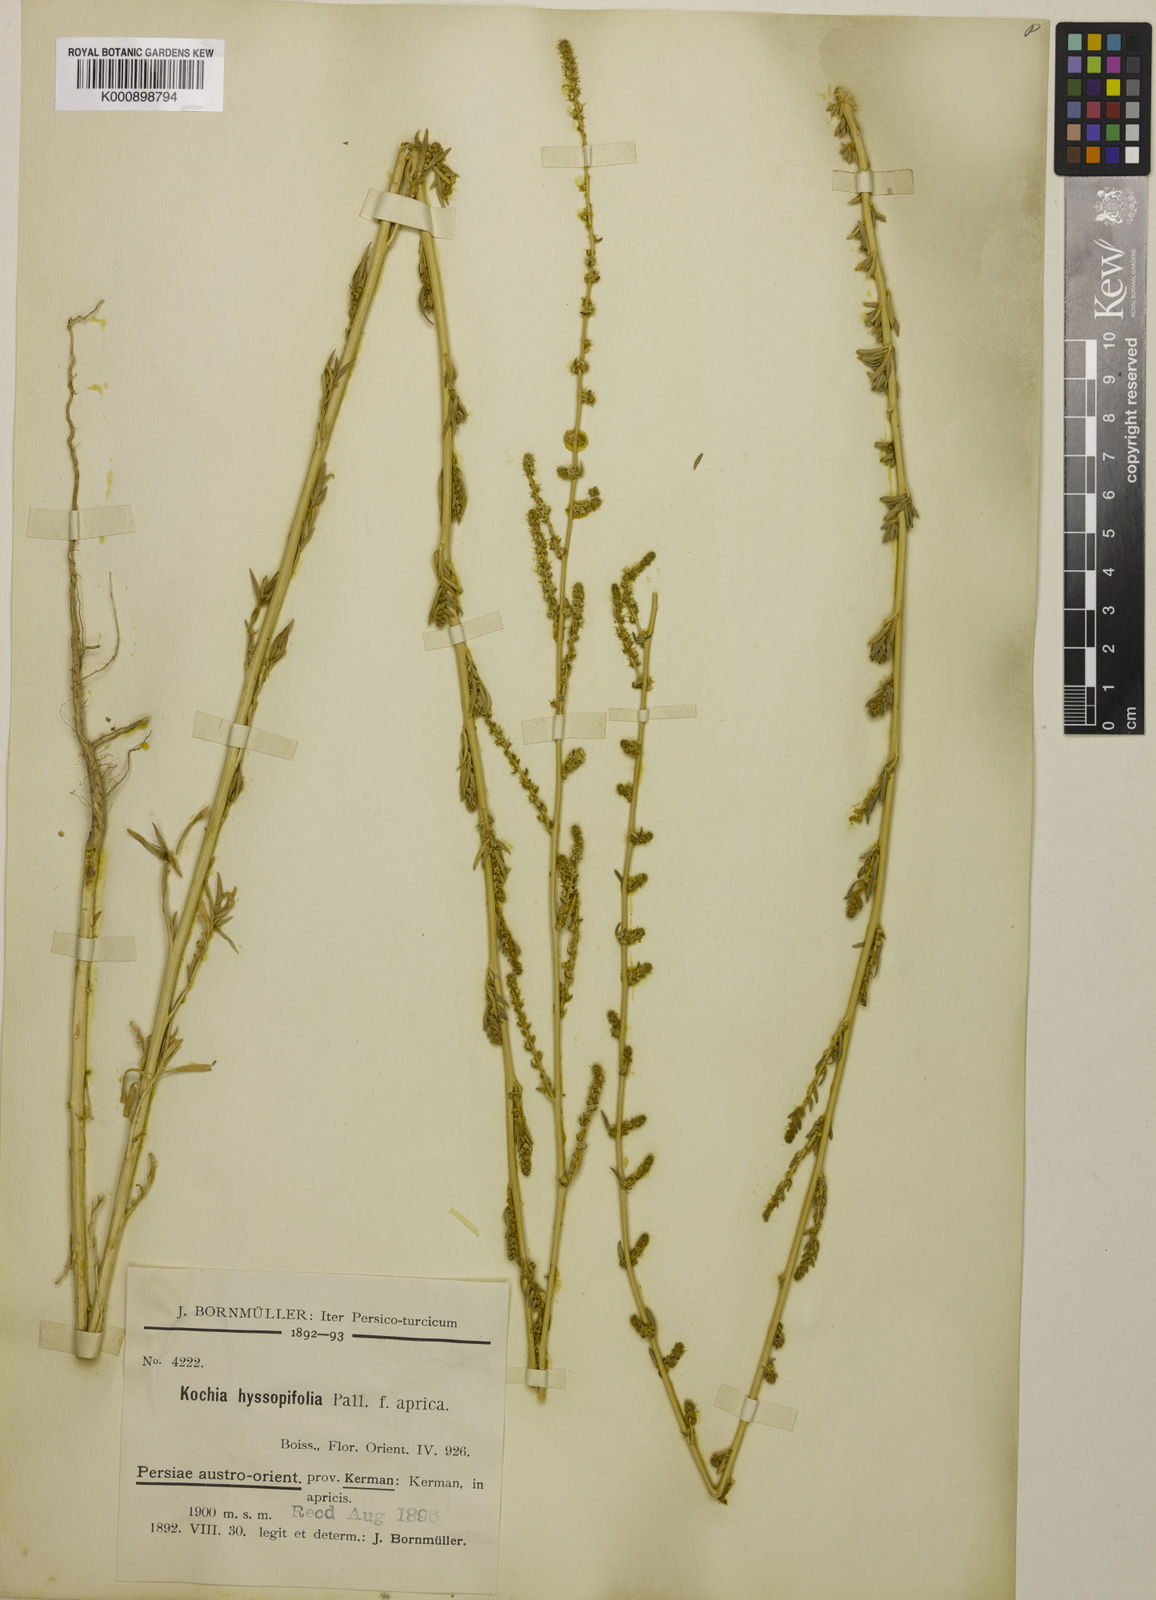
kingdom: Plantae
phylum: Tracheophyta
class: Magnoliopsida
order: Caryophyllales
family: Amaranthaceae
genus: Bassia
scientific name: Bassia hyssopifolia
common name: Fivehorn smotherweed
